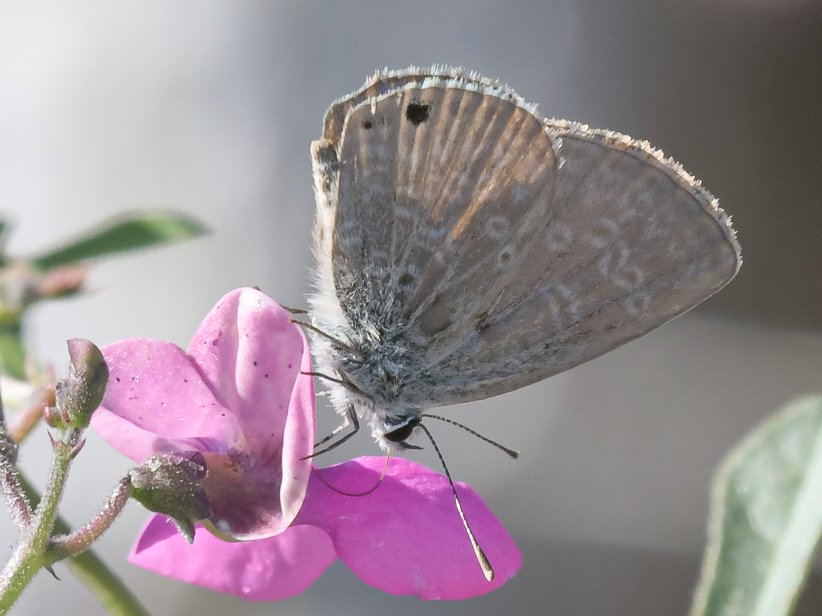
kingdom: Animalia
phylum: Arthropoda
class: Insecta
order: Lepidoptera
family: Lycaenidae
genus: Hemiargus
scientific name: Hemiargus ceraunus
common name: Ceraunus Blue
